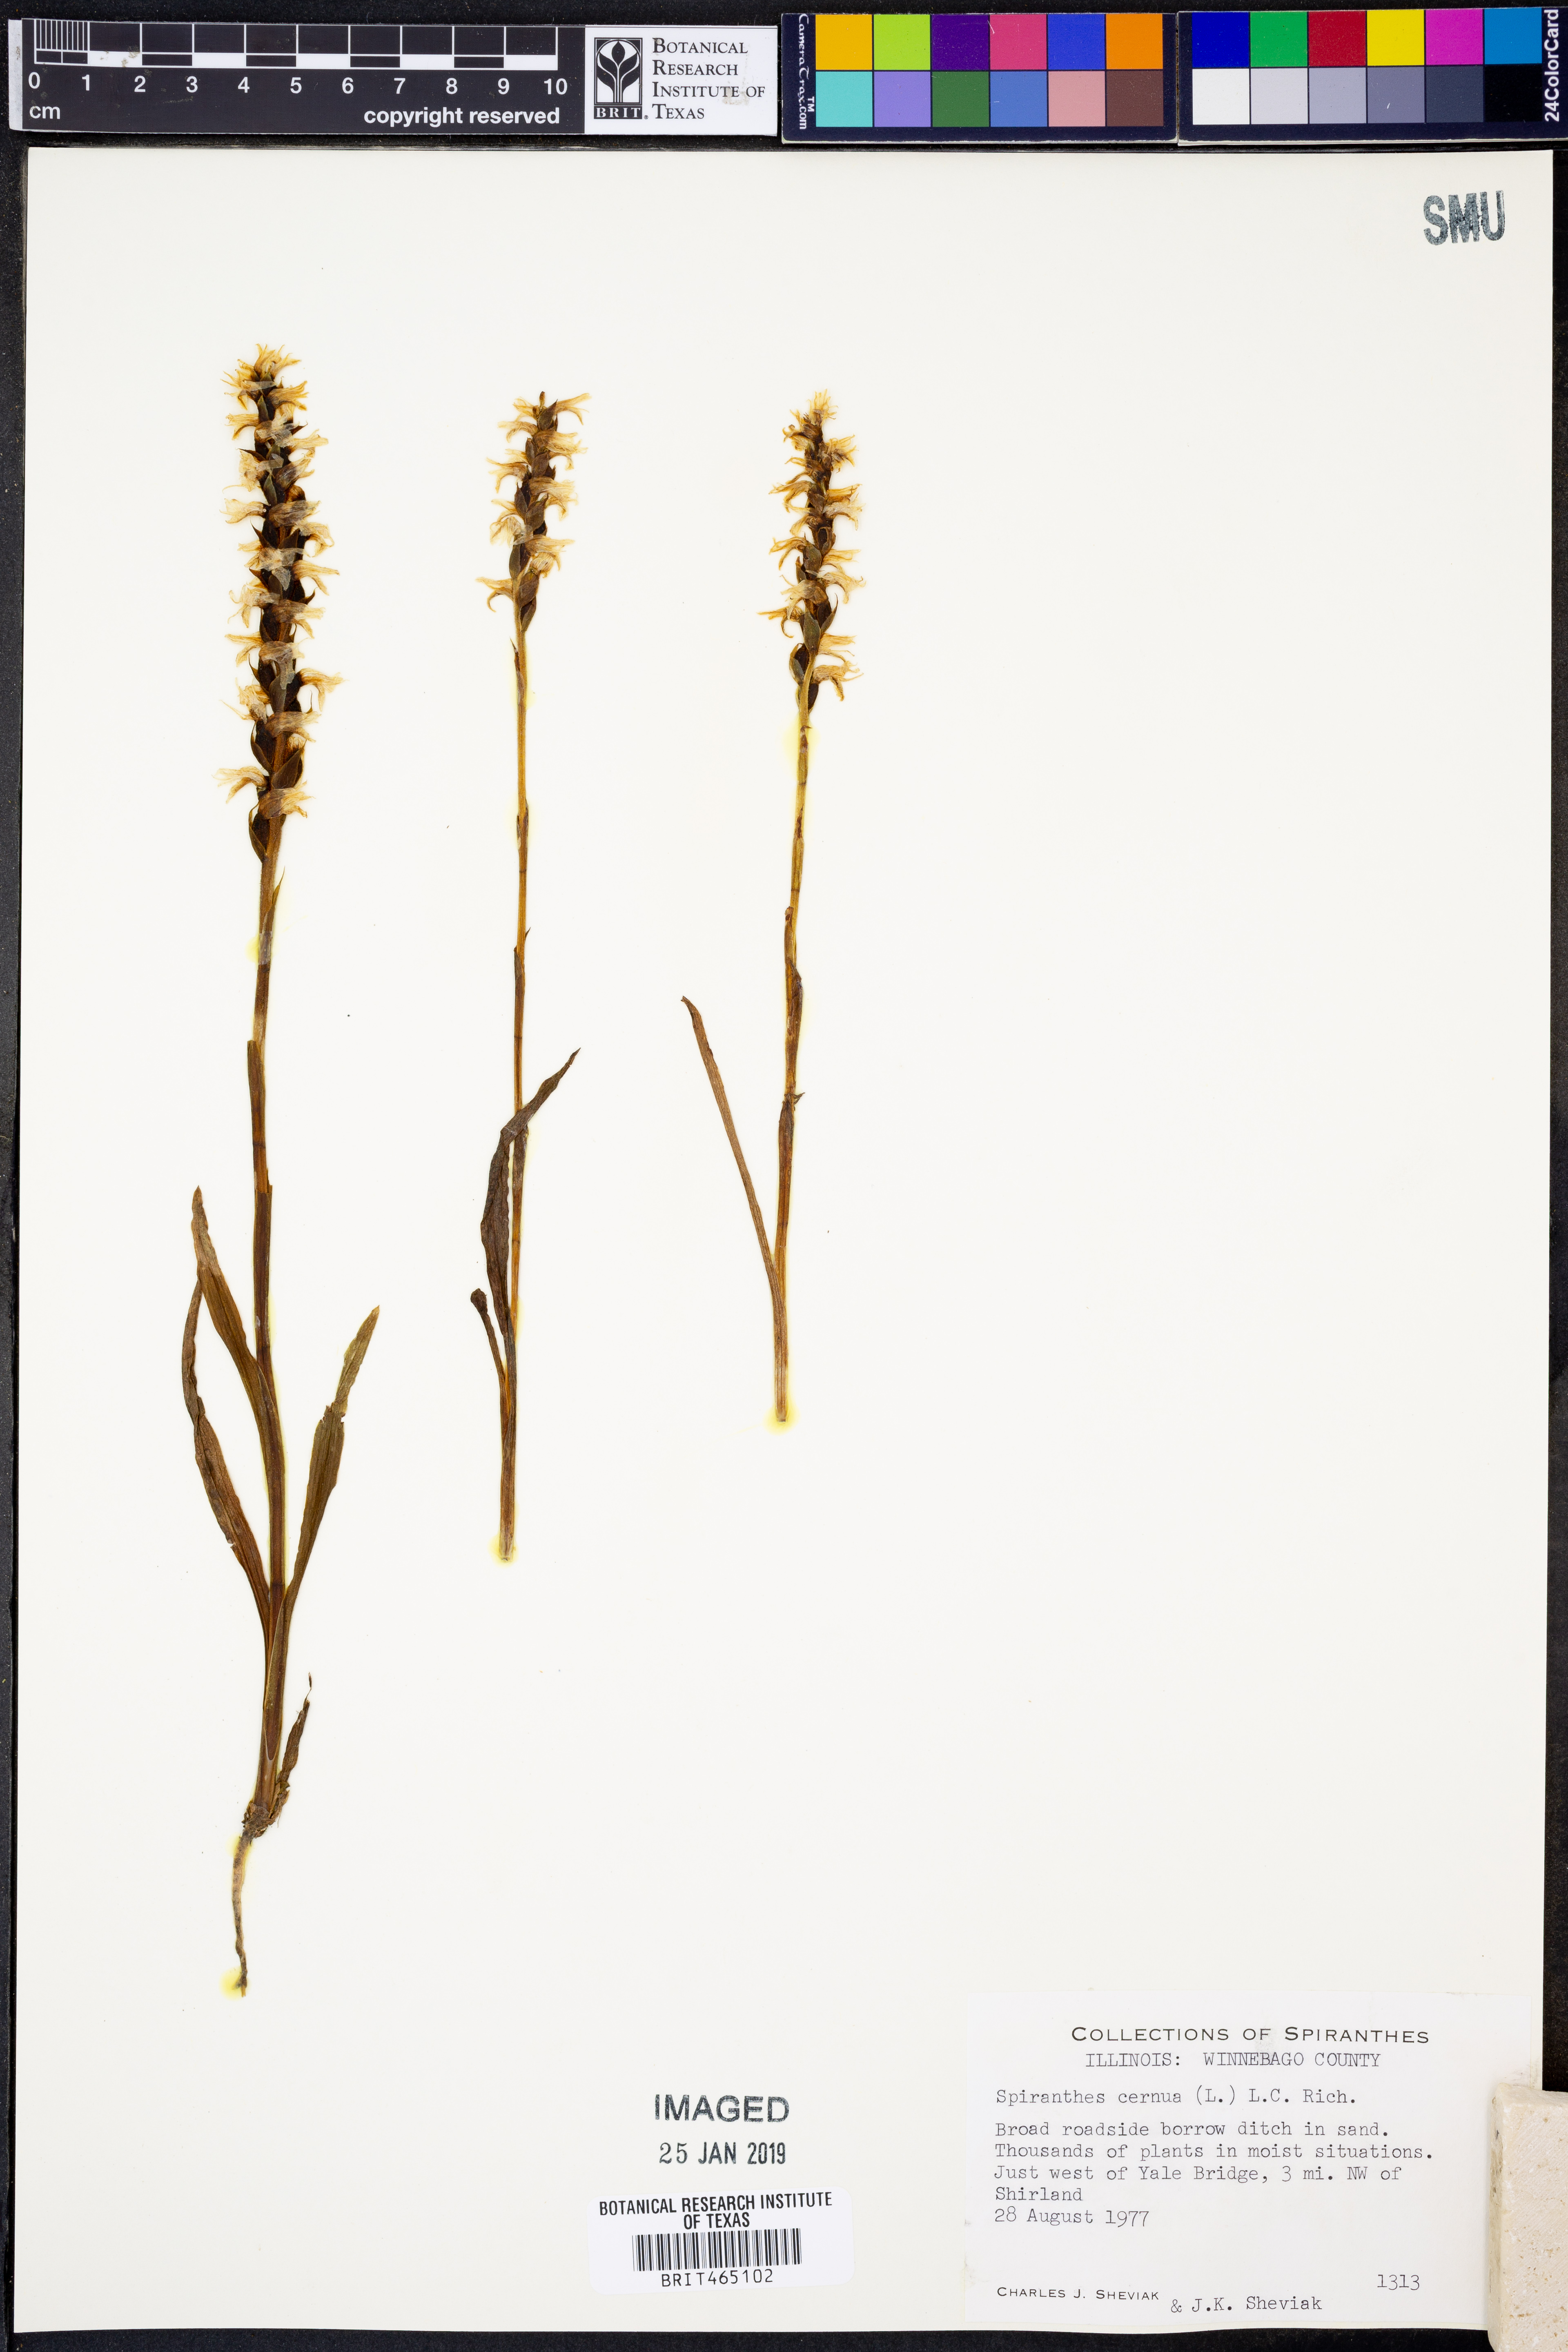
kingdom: Plantae
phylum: Tracheophyta
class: Liliopsida
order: Asparagales
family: Orchidaceae
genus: Spiranthes
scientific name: Spiranthes cernua
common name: Dropping ladies'-tresses
